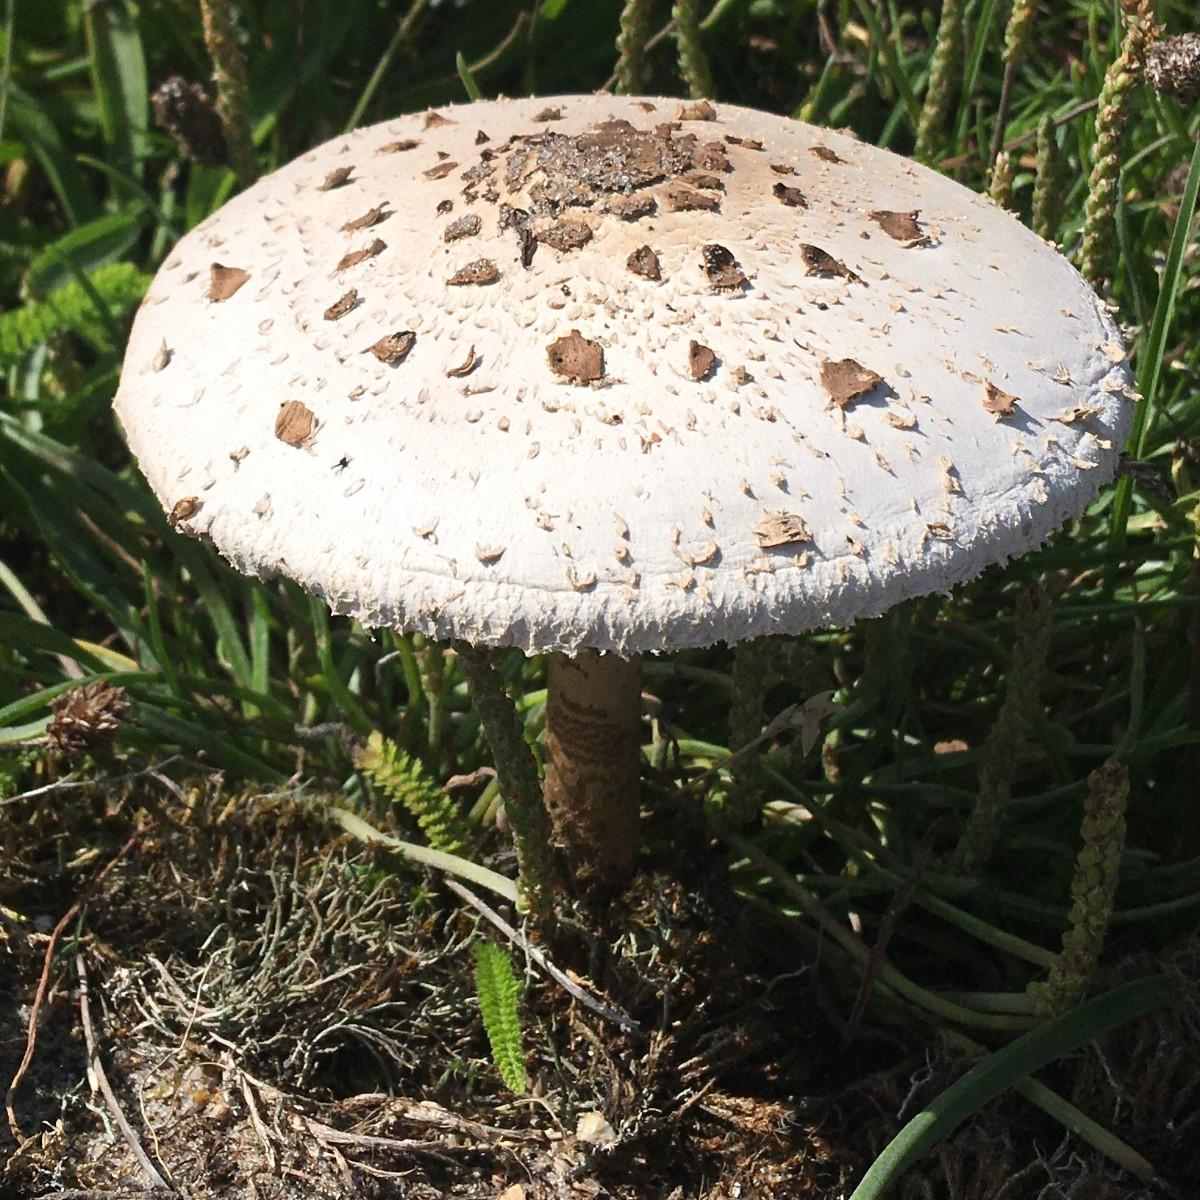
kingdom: Fungi
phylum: Basidiomycota
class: Agaricomycetes
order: Agaricales
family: Agaricaceae
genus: Macrolepiota
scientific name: Macrolepiota procera
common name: stor kæmpeparasolhat
